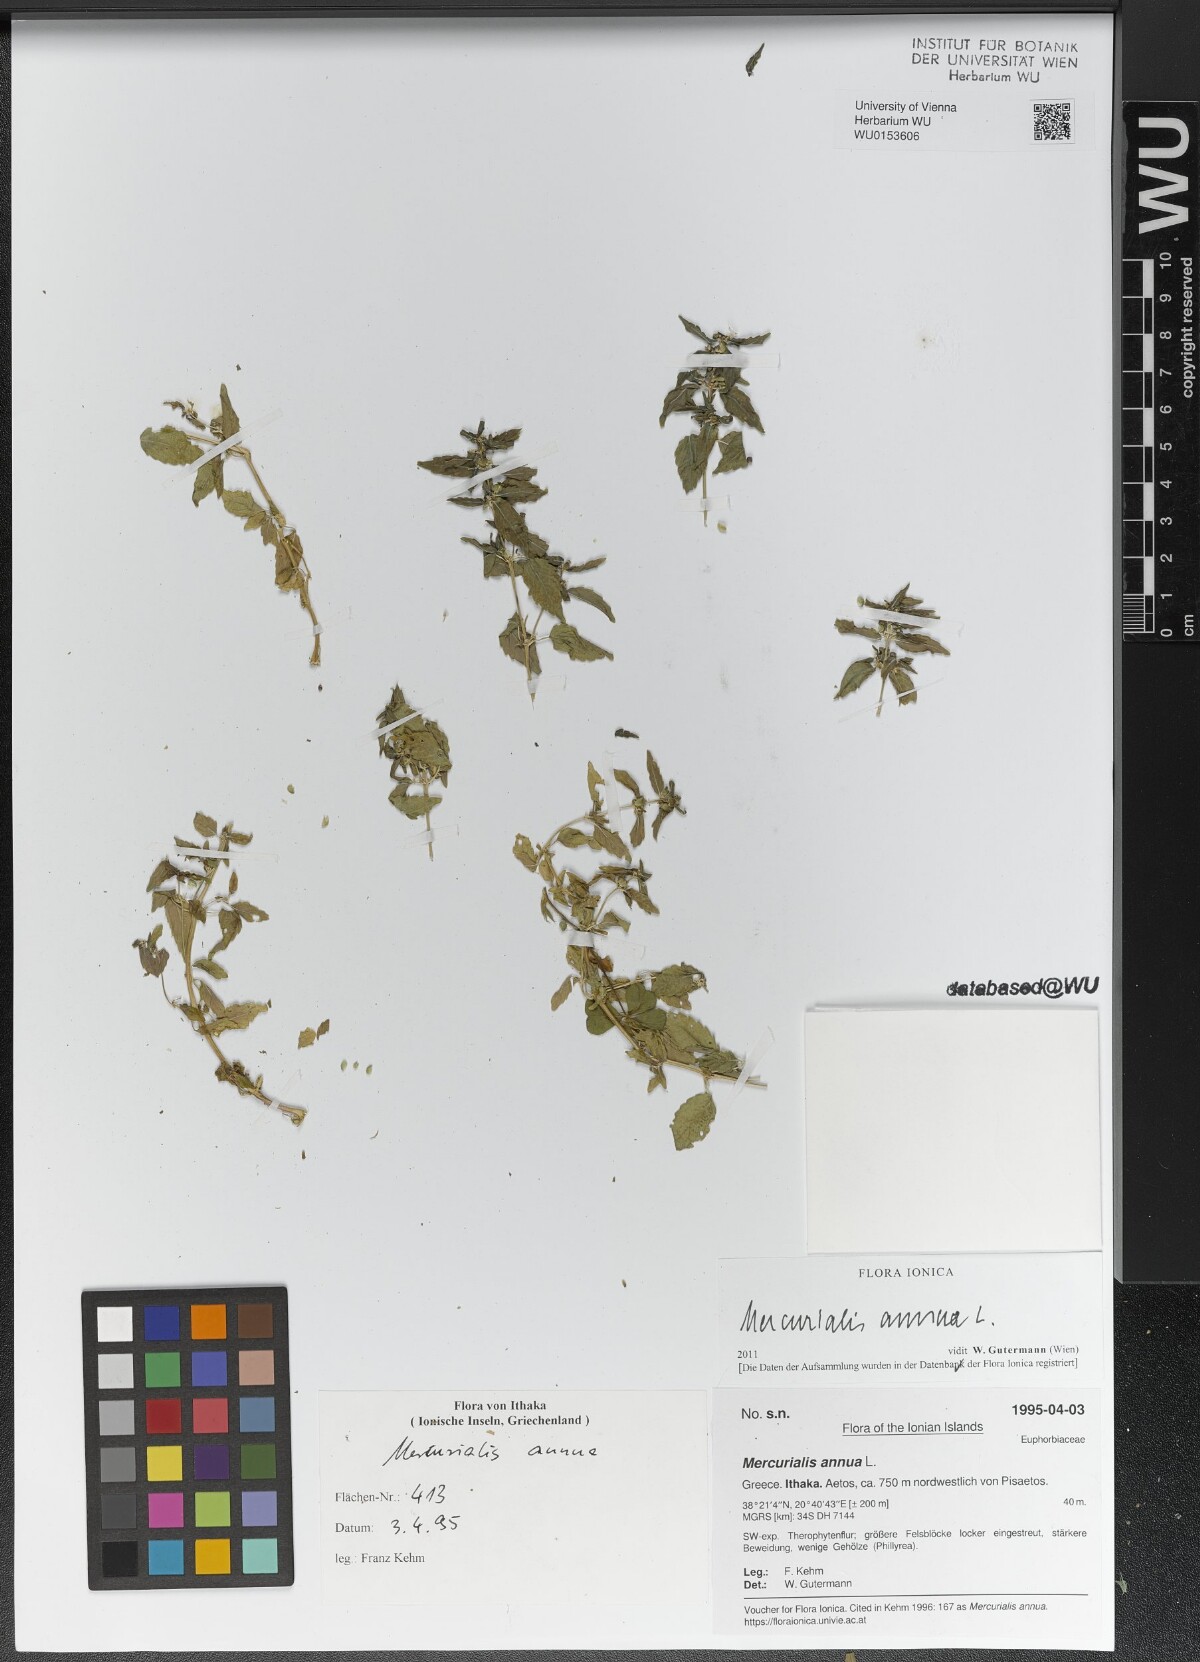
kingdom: Plantae
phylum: Tracheophyta
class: Magnoliopsida
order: Malpighiales
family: Euphorbiaceae
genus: Mercurialis
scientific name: Mercurialis annua
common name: Annual mercury
